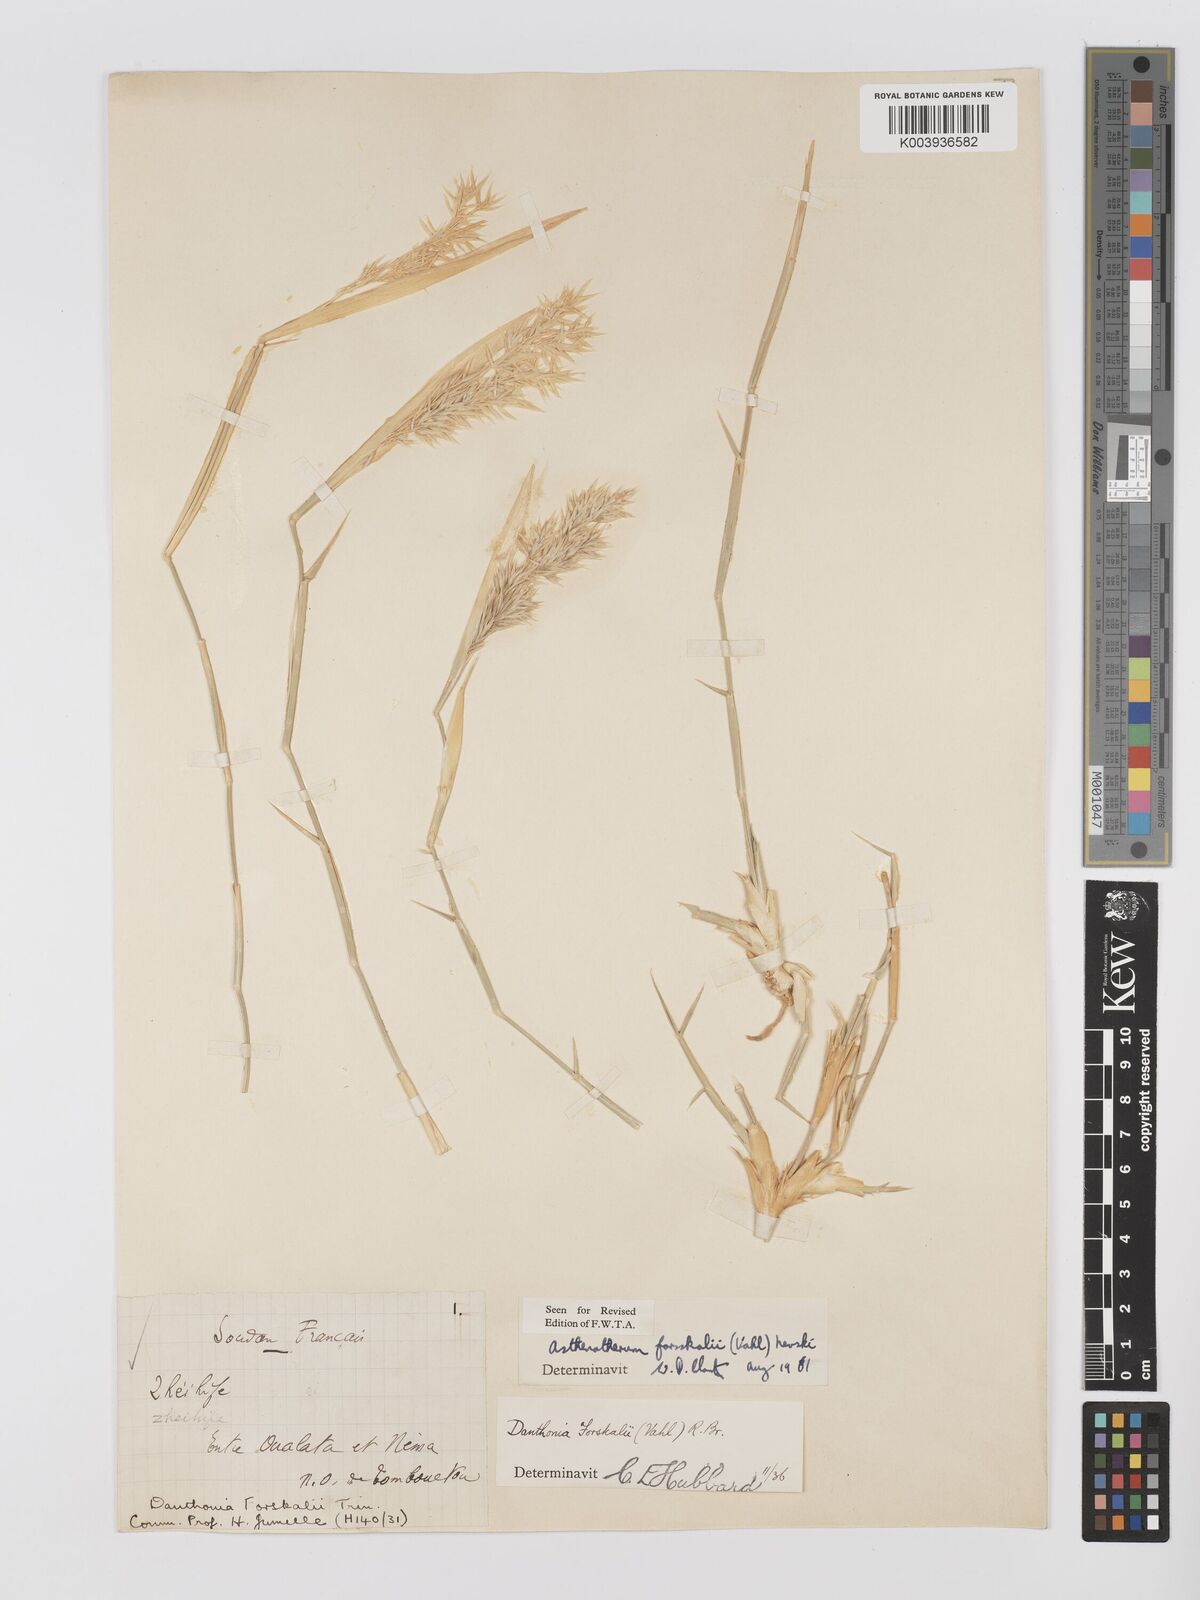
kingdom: Plantae
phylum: Tracheophyta
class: Liliopsida
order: Poales
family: Poaceae
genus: Centropodia
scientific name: Centropodia forskaolii
